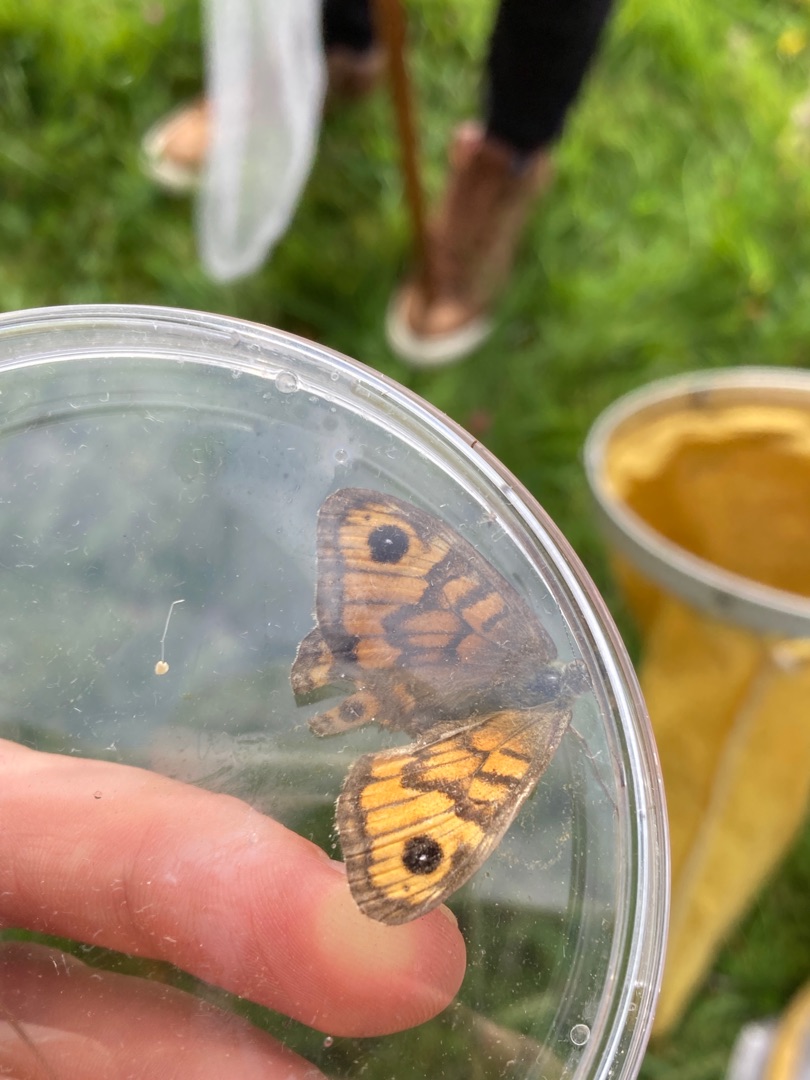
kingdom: Animalia
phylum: Arthropoda
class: Insecta
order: Lepidoptera
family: Nymphalidae
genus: Pararge
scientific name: Pararge Lasiommata megera
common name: Vejrandøje
